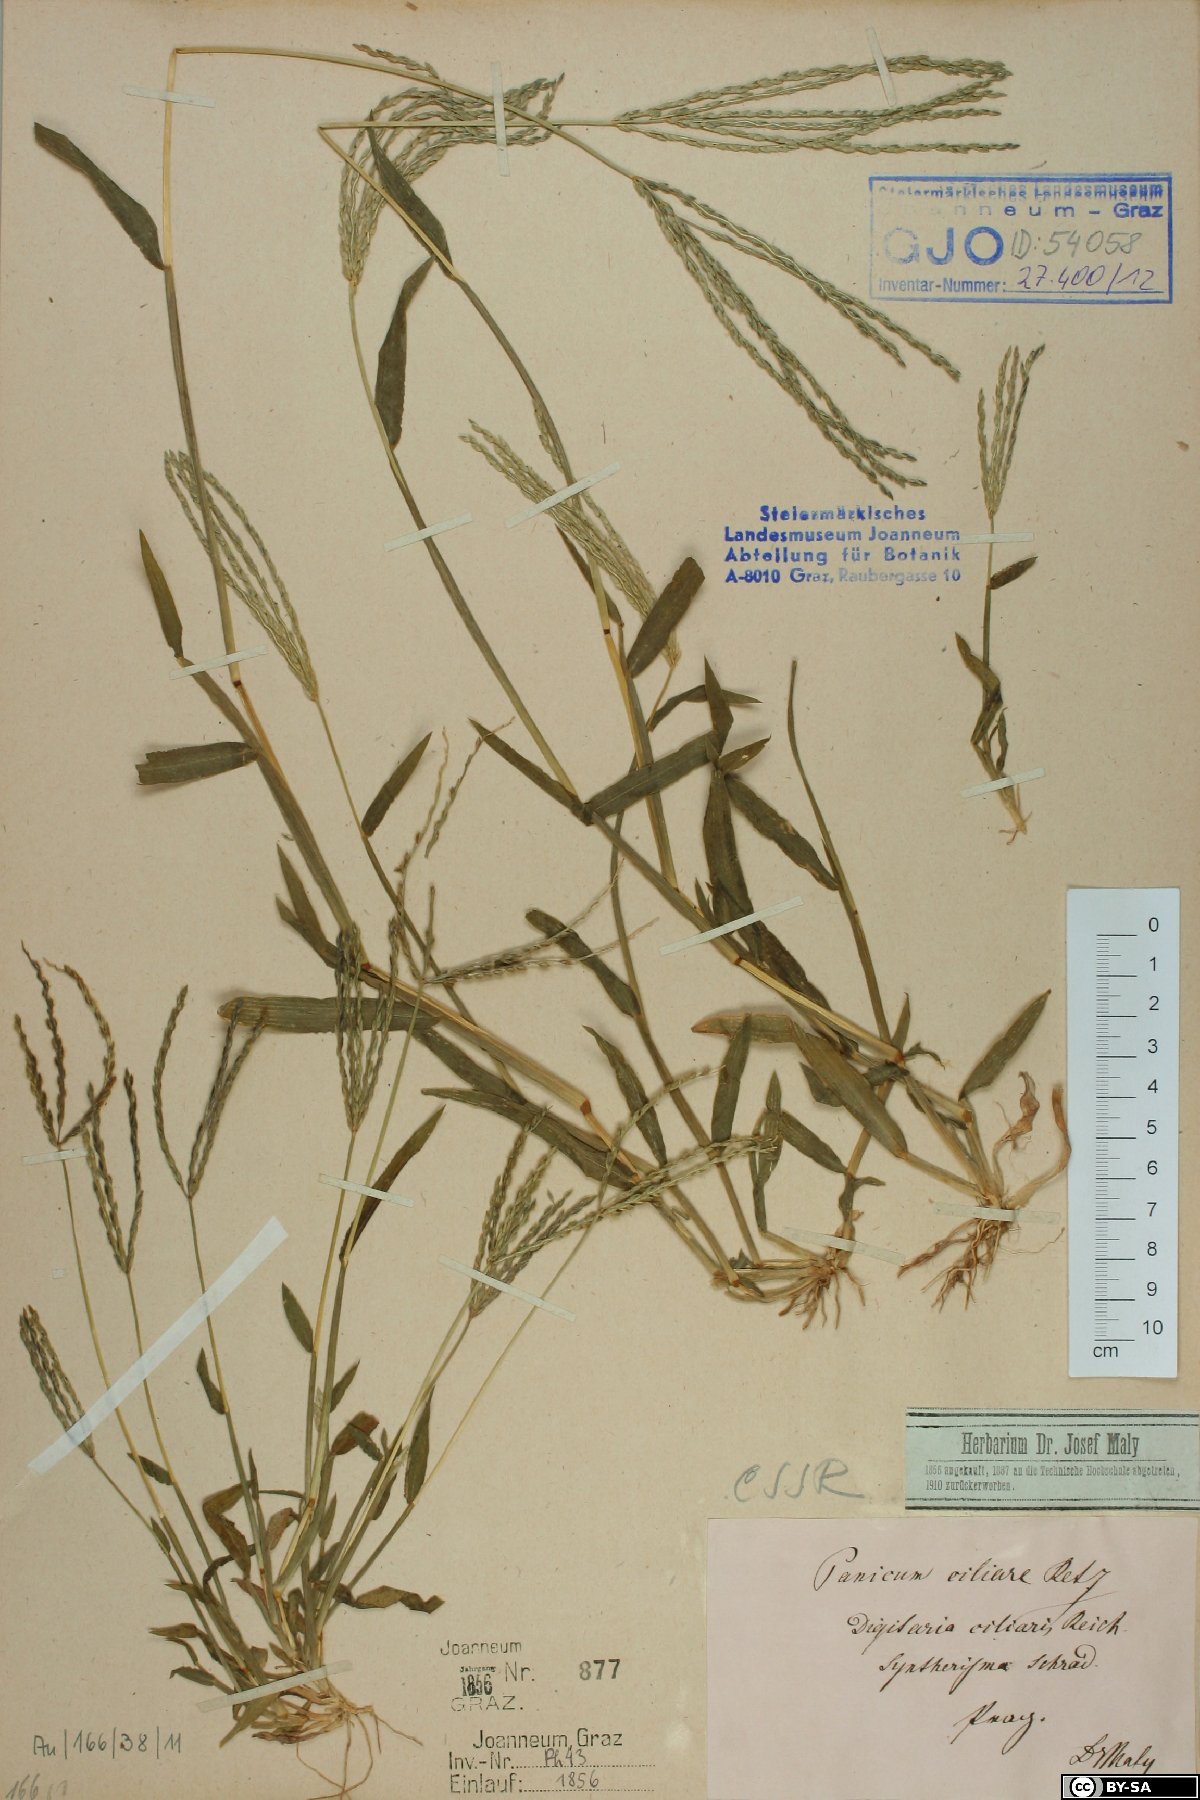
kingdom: Plantae
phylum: Tracheophyta
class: Liliopsida
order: Poales
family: Poaceae
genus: Digitaria
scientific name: Digitaria ciliaris
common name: Tropical finger-grass
